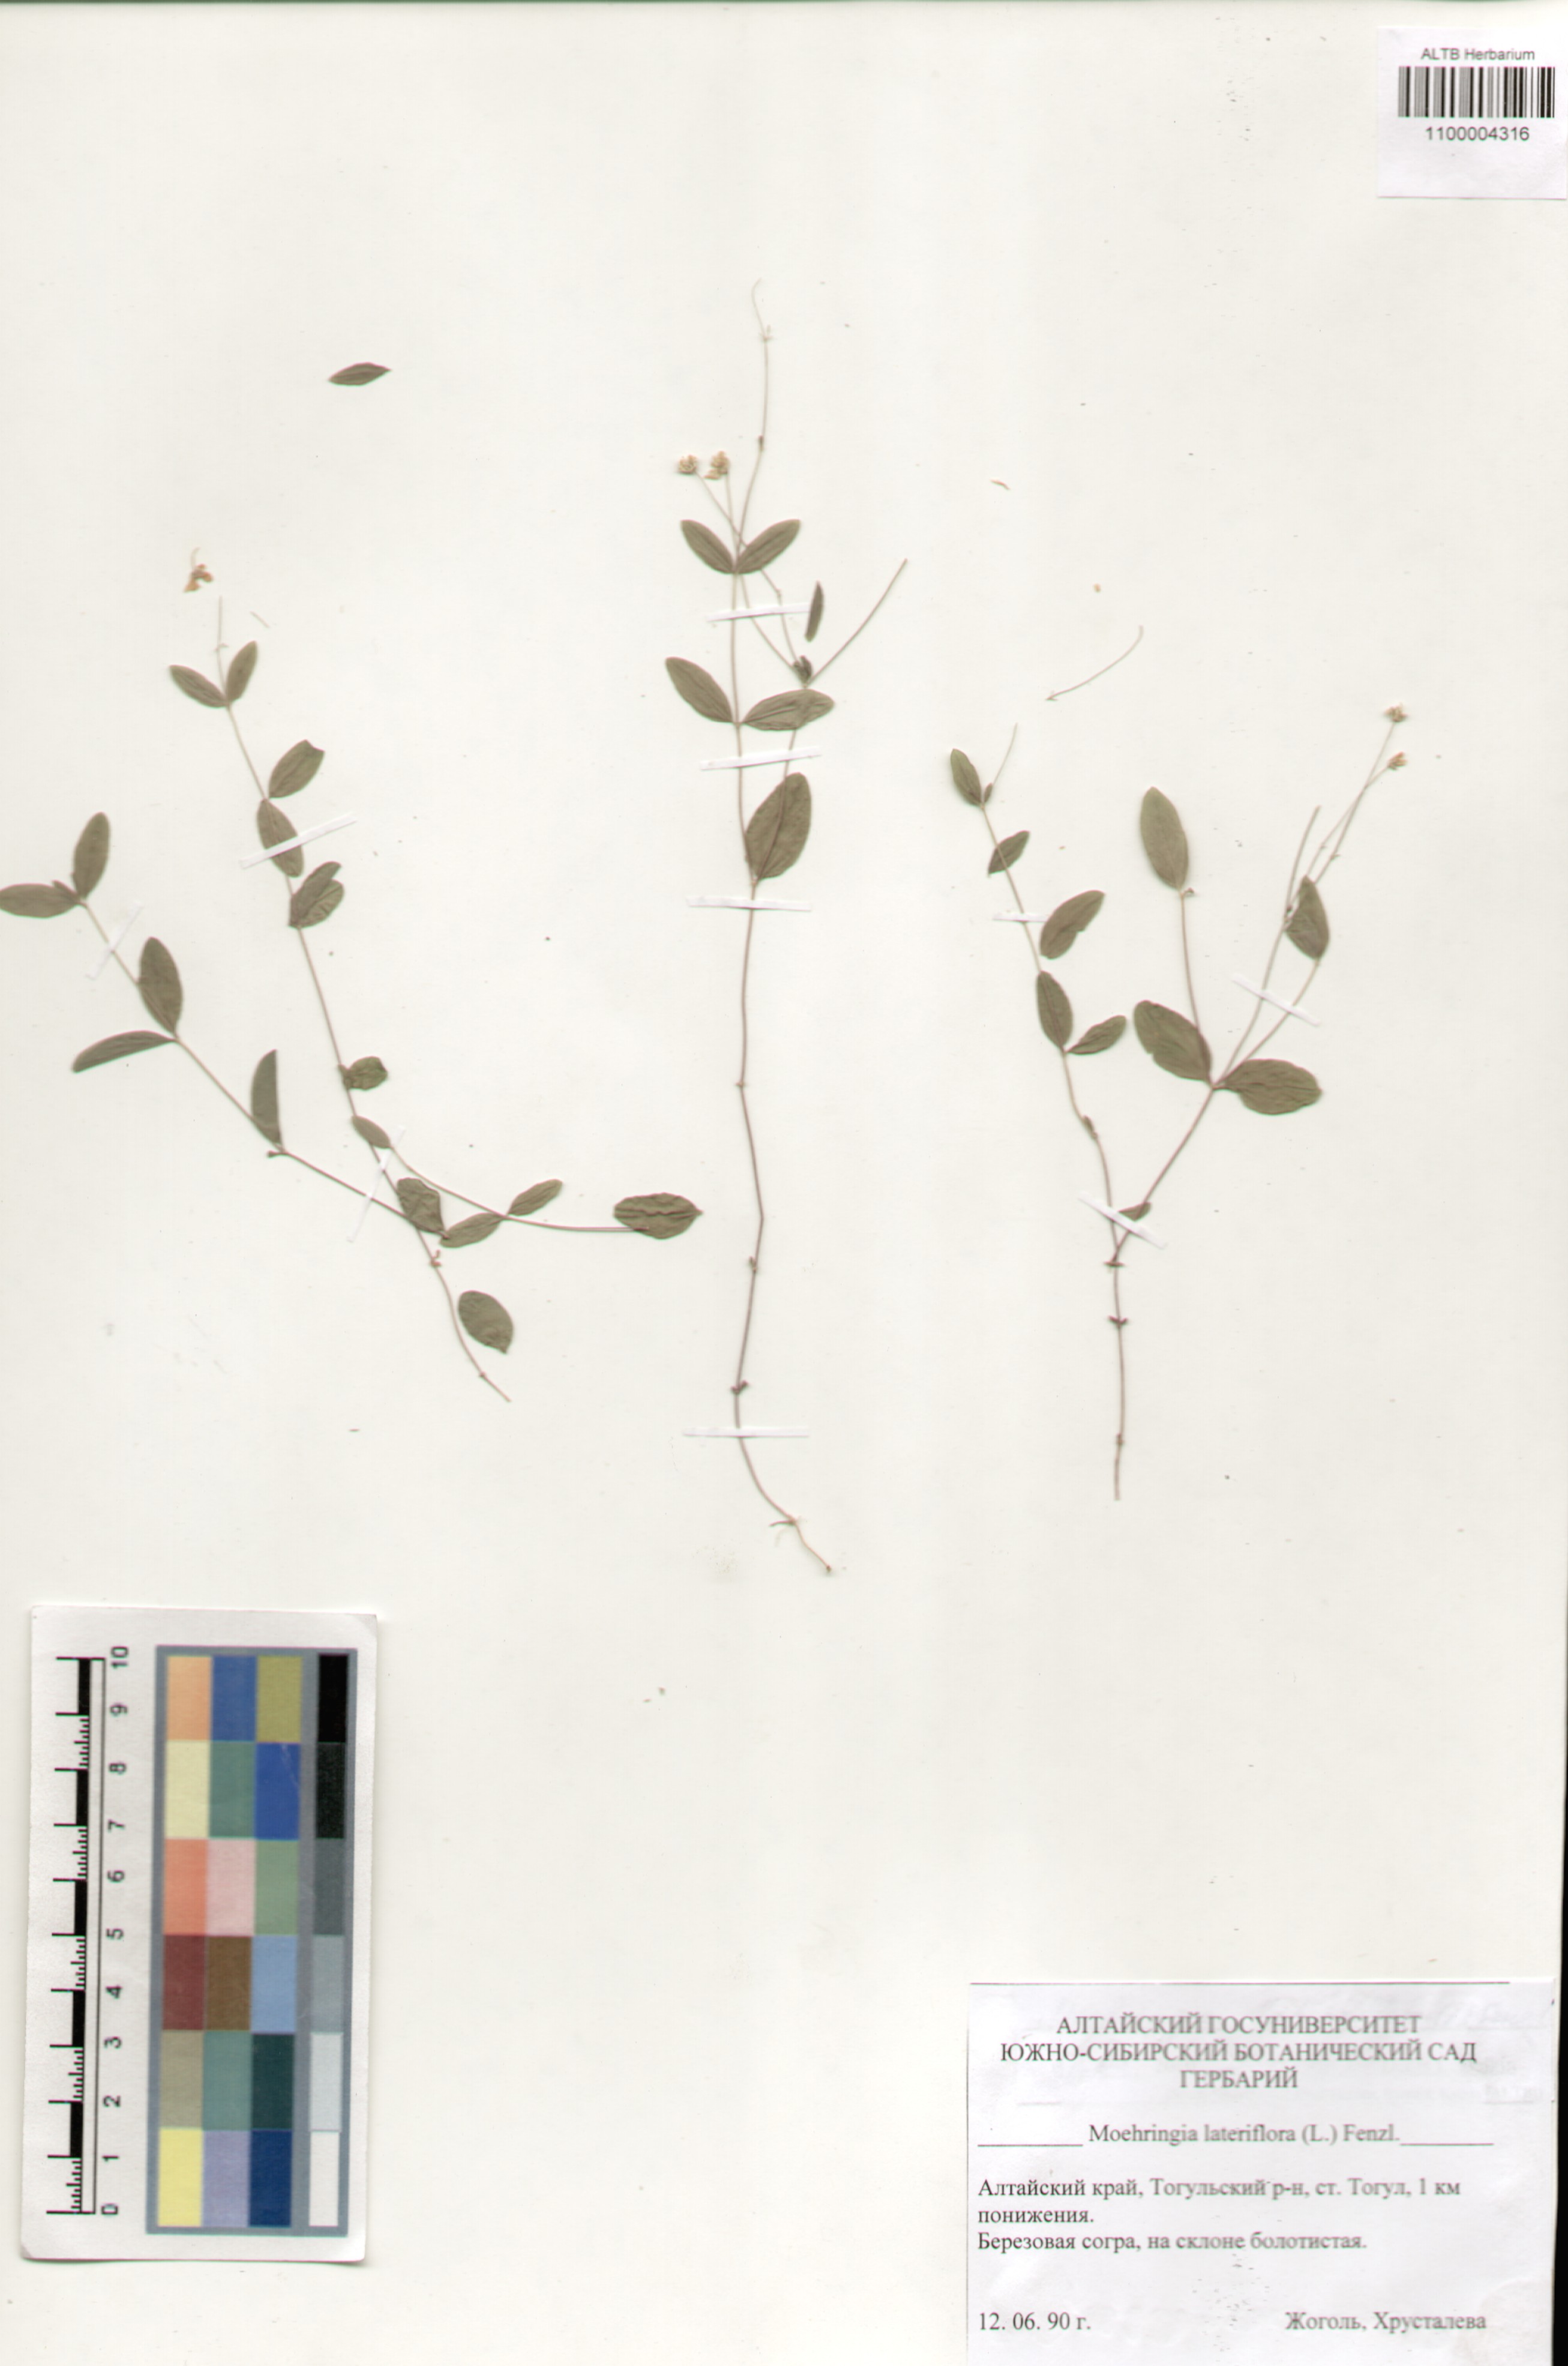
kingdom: Plantae
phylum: Tracheophyta
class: Magnoliopsida
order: Caryophyllales
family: Caryophyllaceae
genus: Moehringia
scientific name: Moehringia lateriflora
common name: Blunt-leaved sandwort
